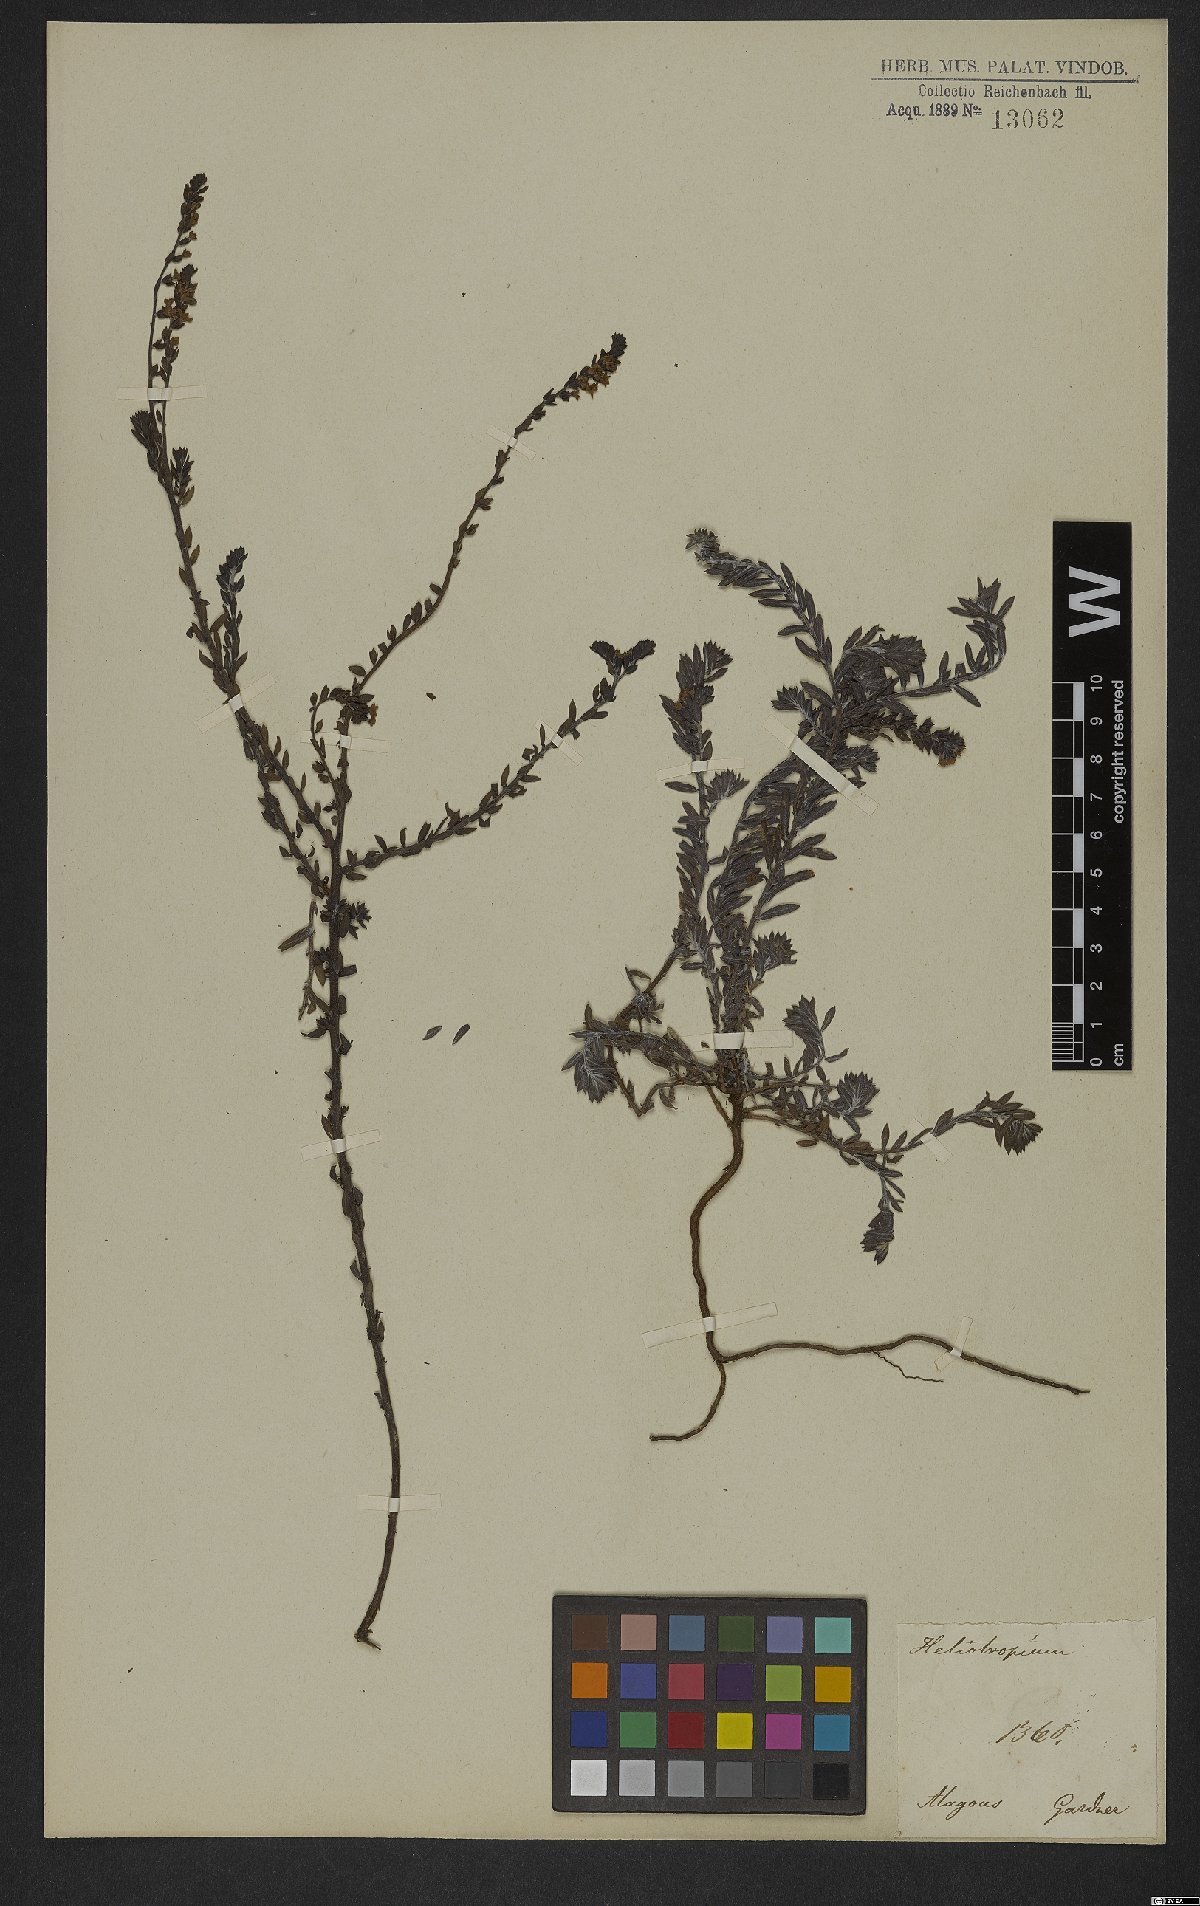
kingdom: Plantae
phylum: Tracheophyta
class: Magnoliopsida
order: Boraginales
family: Heliotropiaceae
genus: Euploca
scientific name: Euploca polyphylla
